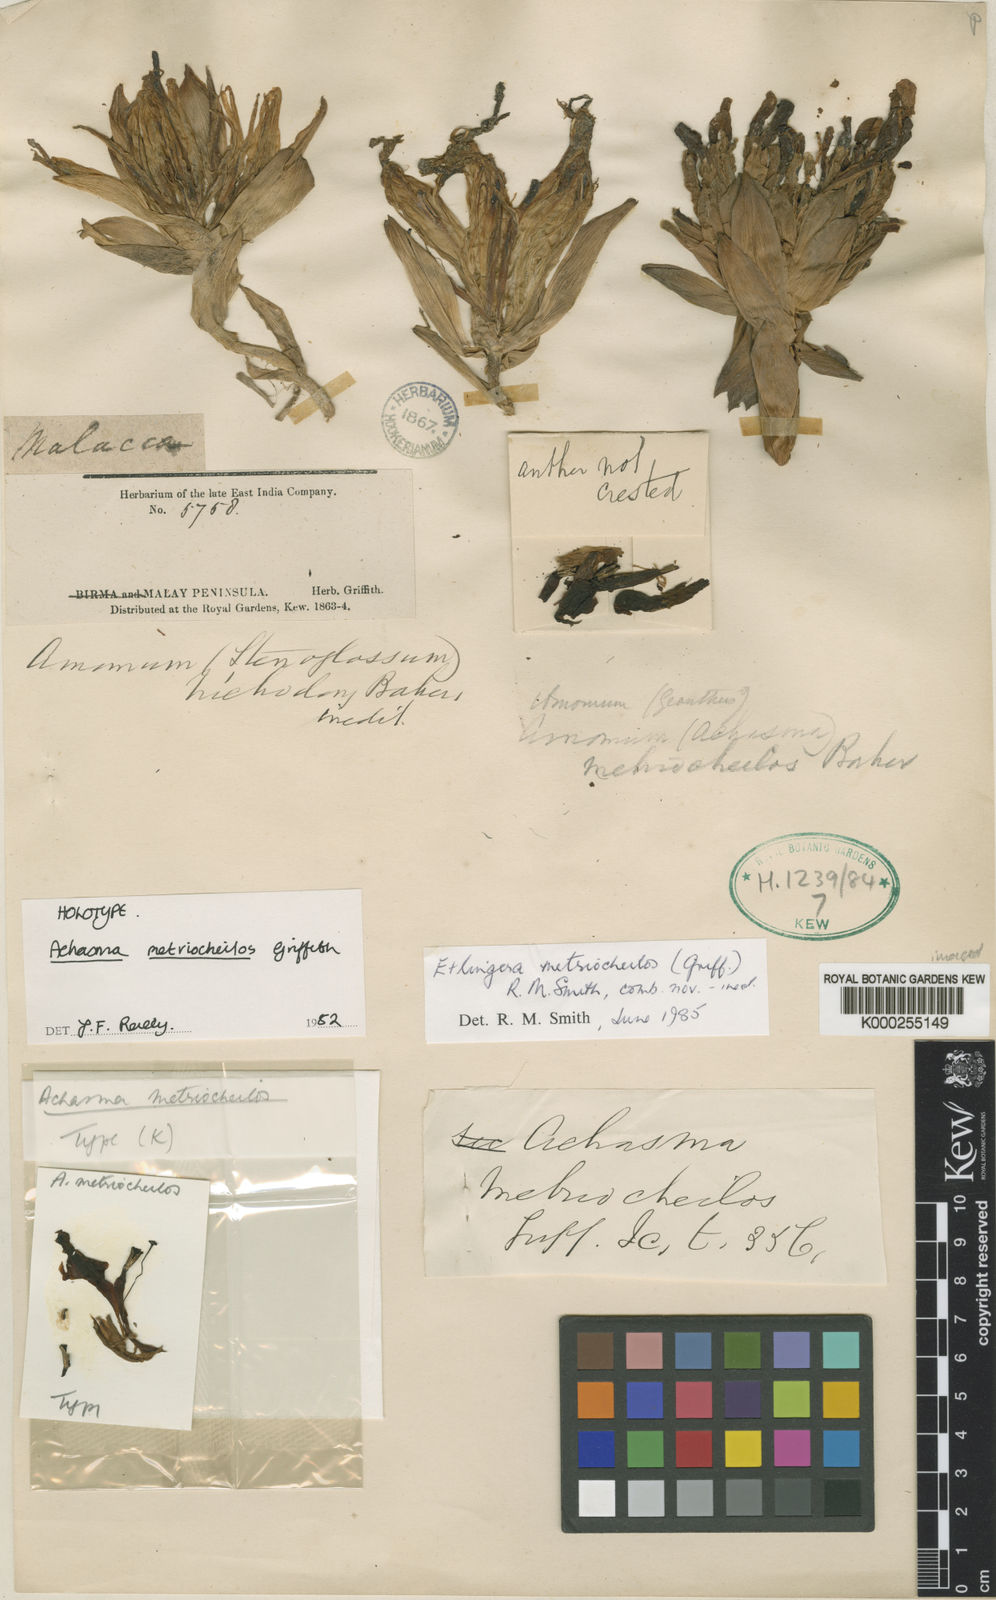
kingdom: Plantae
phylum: Tracheophyta
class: Liliopsida
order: Zingiberales
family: Zingiberaceae
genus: Etlingera
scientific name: Etlingera metriocheilos
